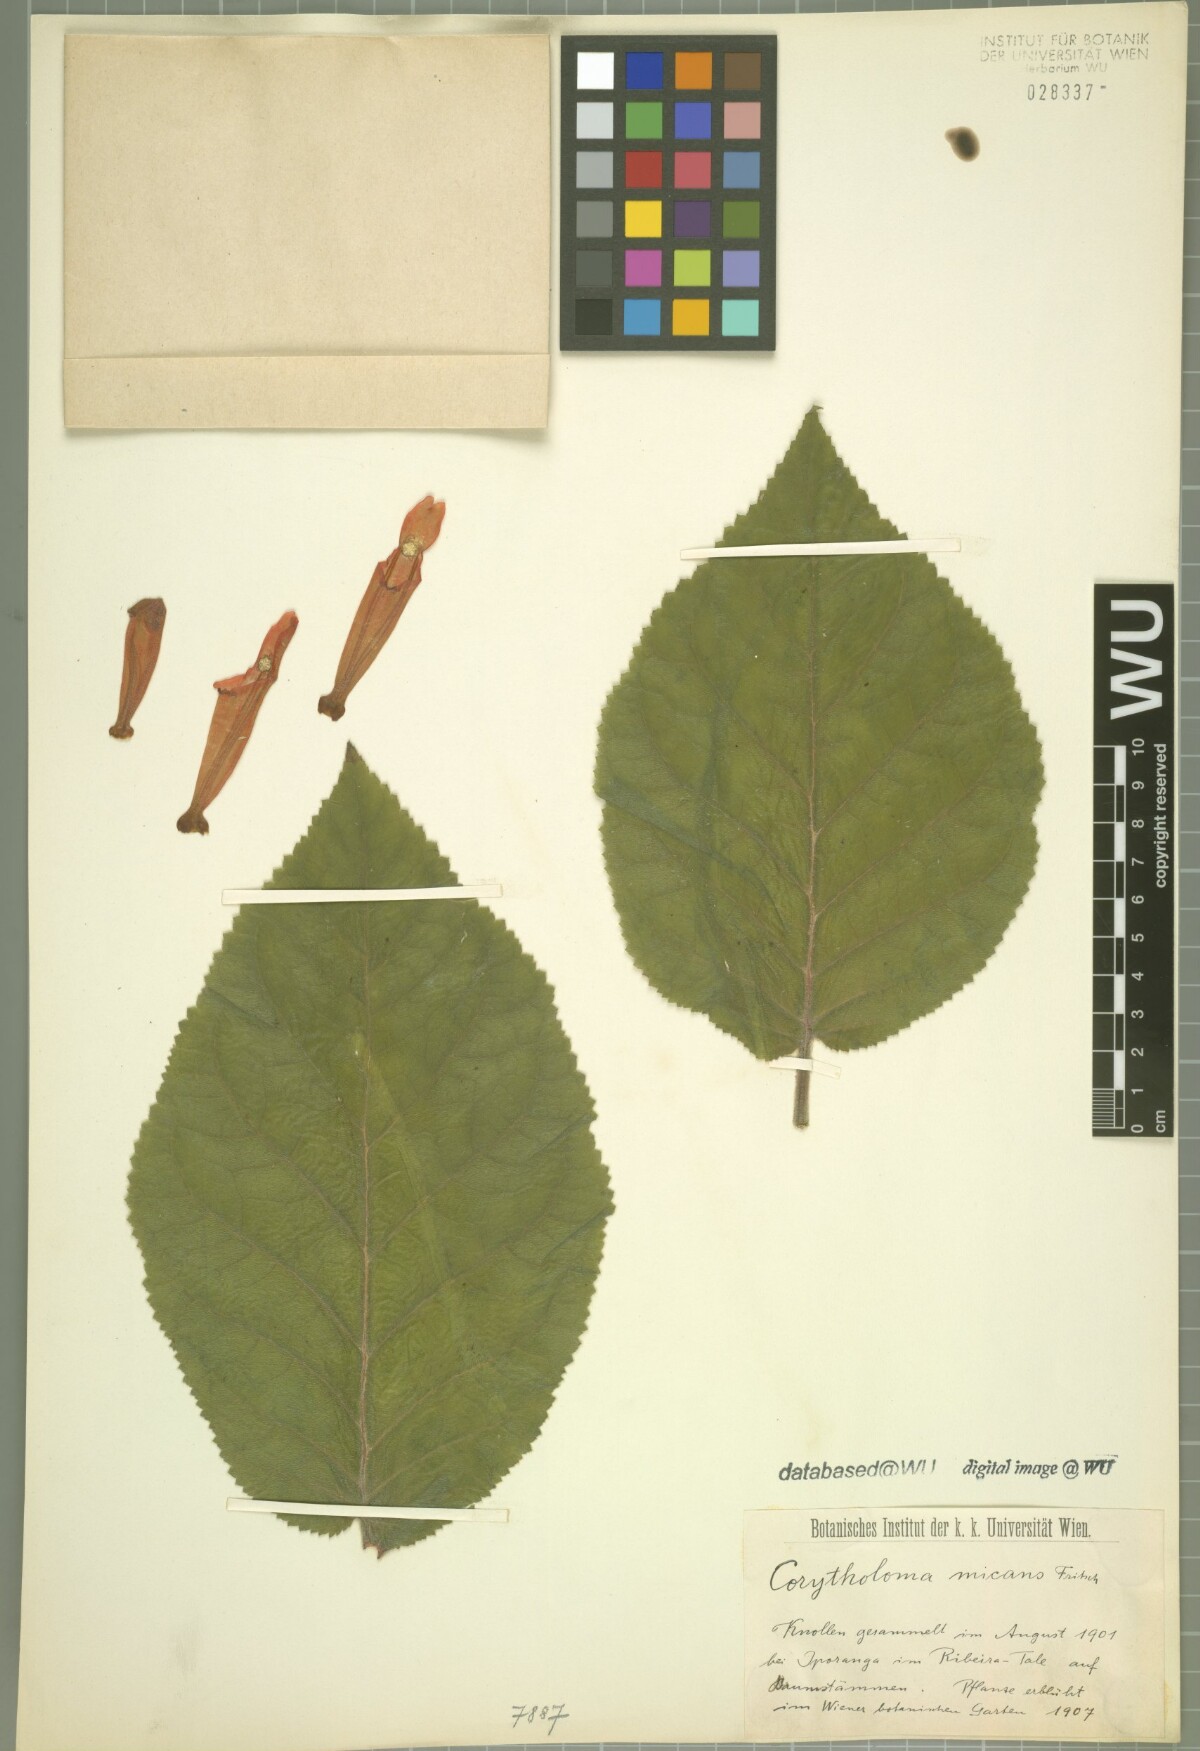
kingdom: Plantae
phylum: Tracheophyta
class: Magnoliopsida
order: Lamiales
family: Gesneriaceae
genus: Sinningia
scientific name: Sinningia micans
